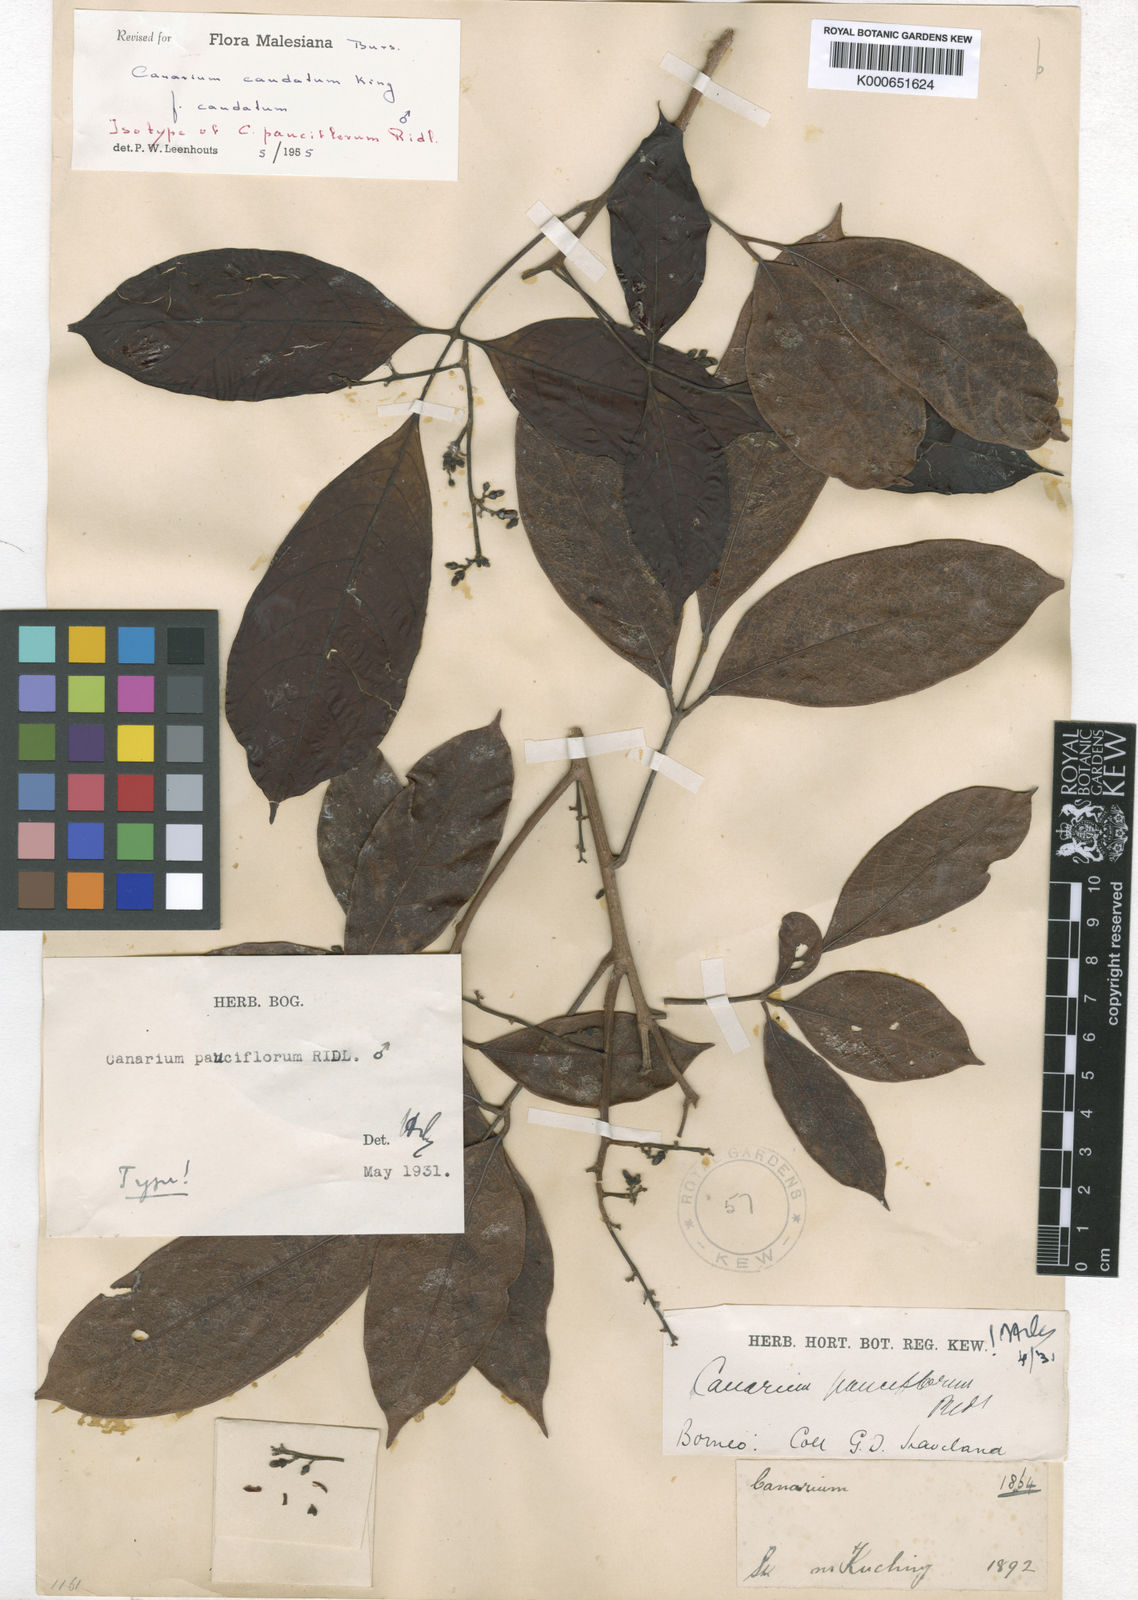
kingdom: Plantae
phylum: Tracheophyta
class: Magnoliopsida
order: Sapindales
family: Burseraceae
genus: Canarium
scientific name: Canarium caudatum
